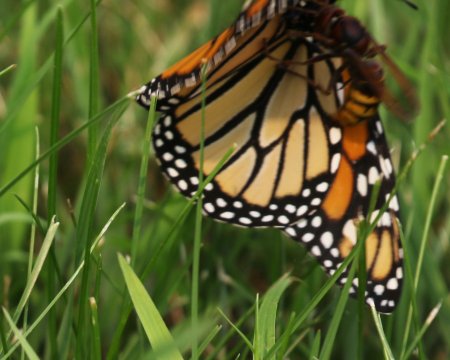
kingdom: Animalia
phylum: Arthropoda
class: Insecta
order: Lepidoptera
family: Nymphalidae
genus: Danaus
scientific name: Danaus plexippus
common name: Monarch
